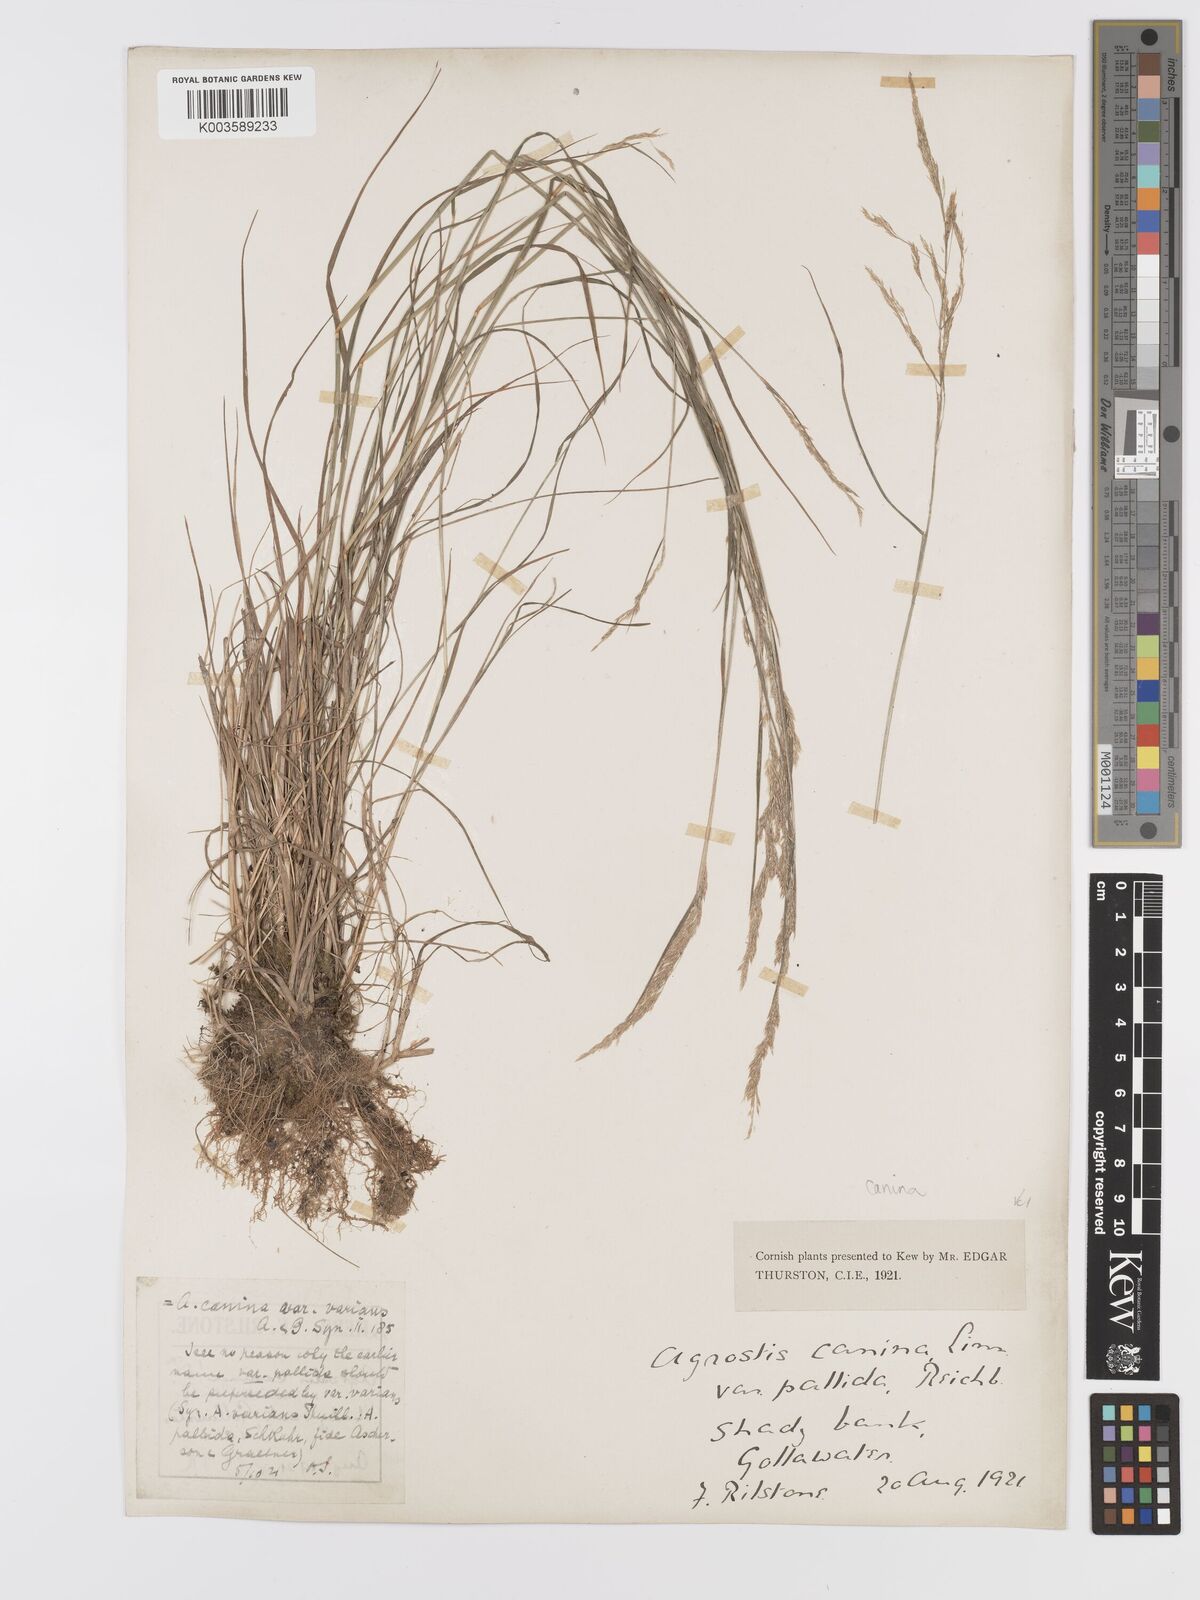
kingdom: Plantae
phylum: Tracheophyta
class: Liliopsida
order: Poales
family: Poaceae
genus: Agrostis
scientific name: Agrostis canina
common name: Velvet bent
